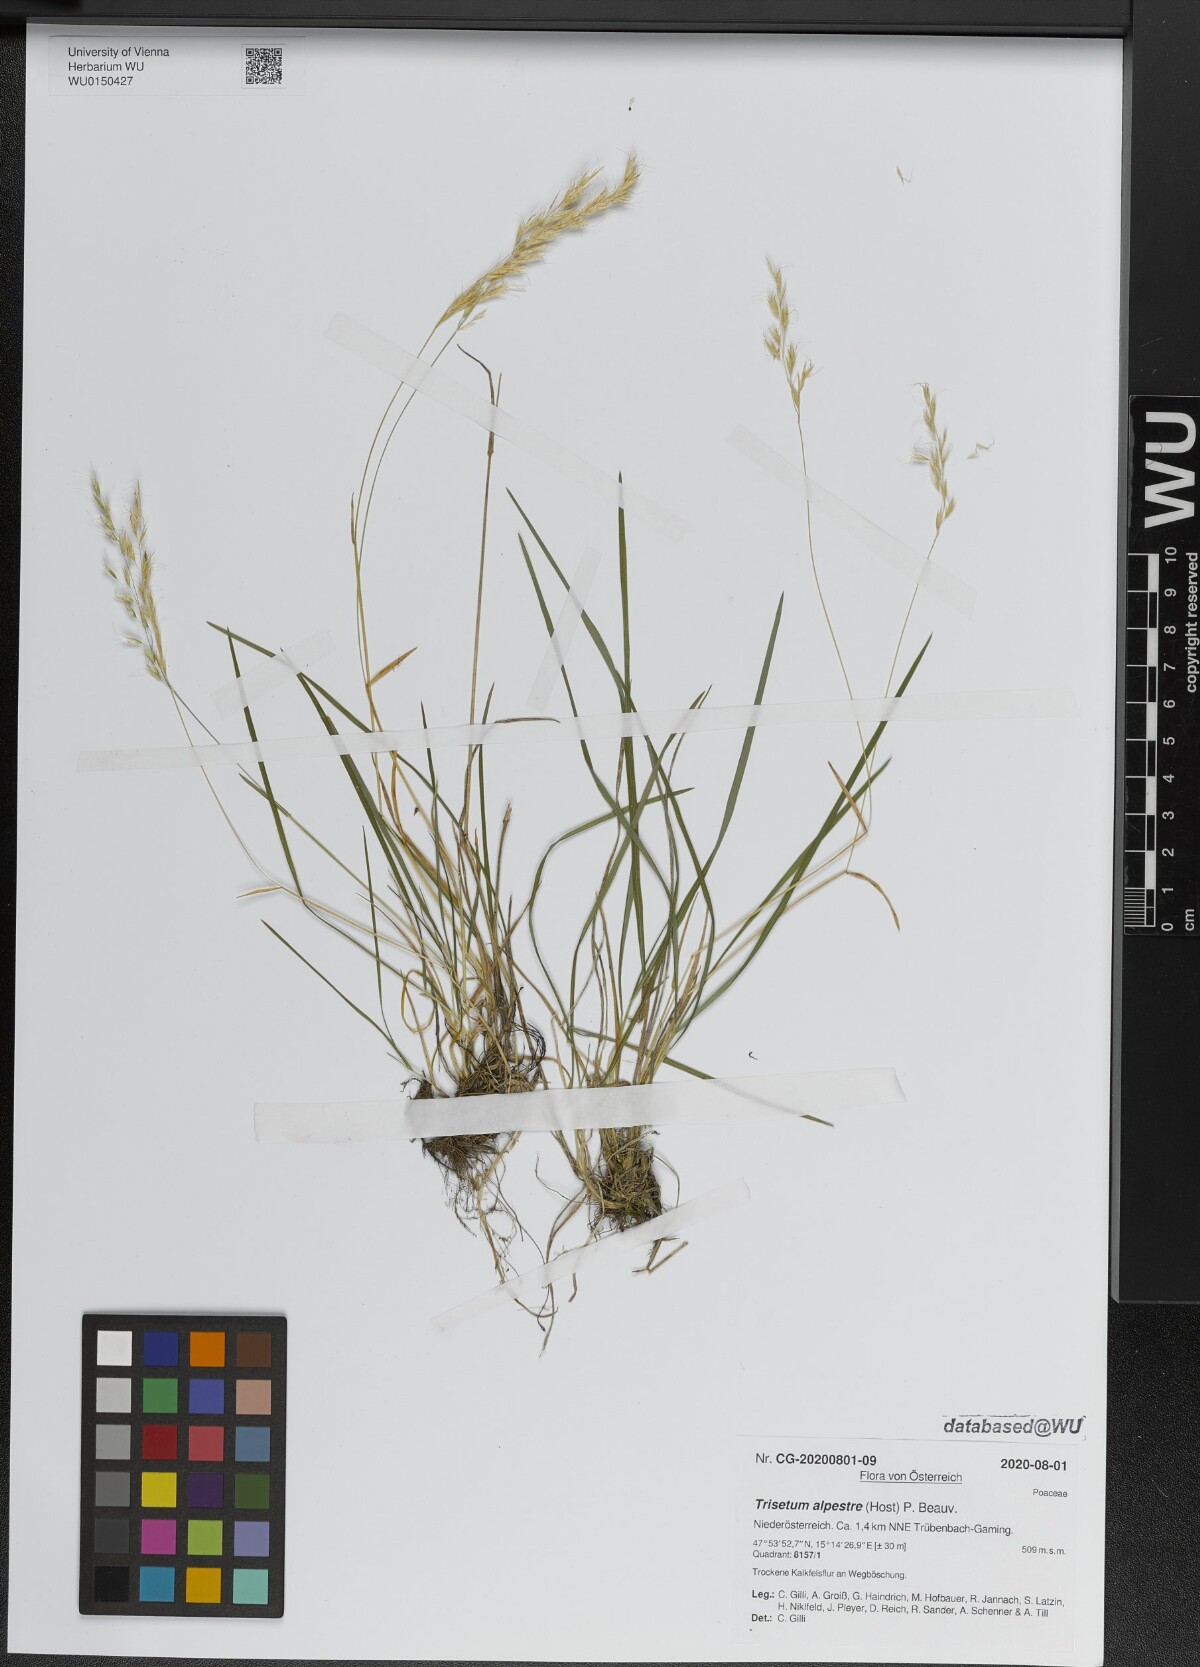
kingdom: Plantae
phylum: Tracheophyta
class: Liliopsida
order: Poales
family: Poaceae
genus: Trisetum
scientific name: Trisetum alpestre
